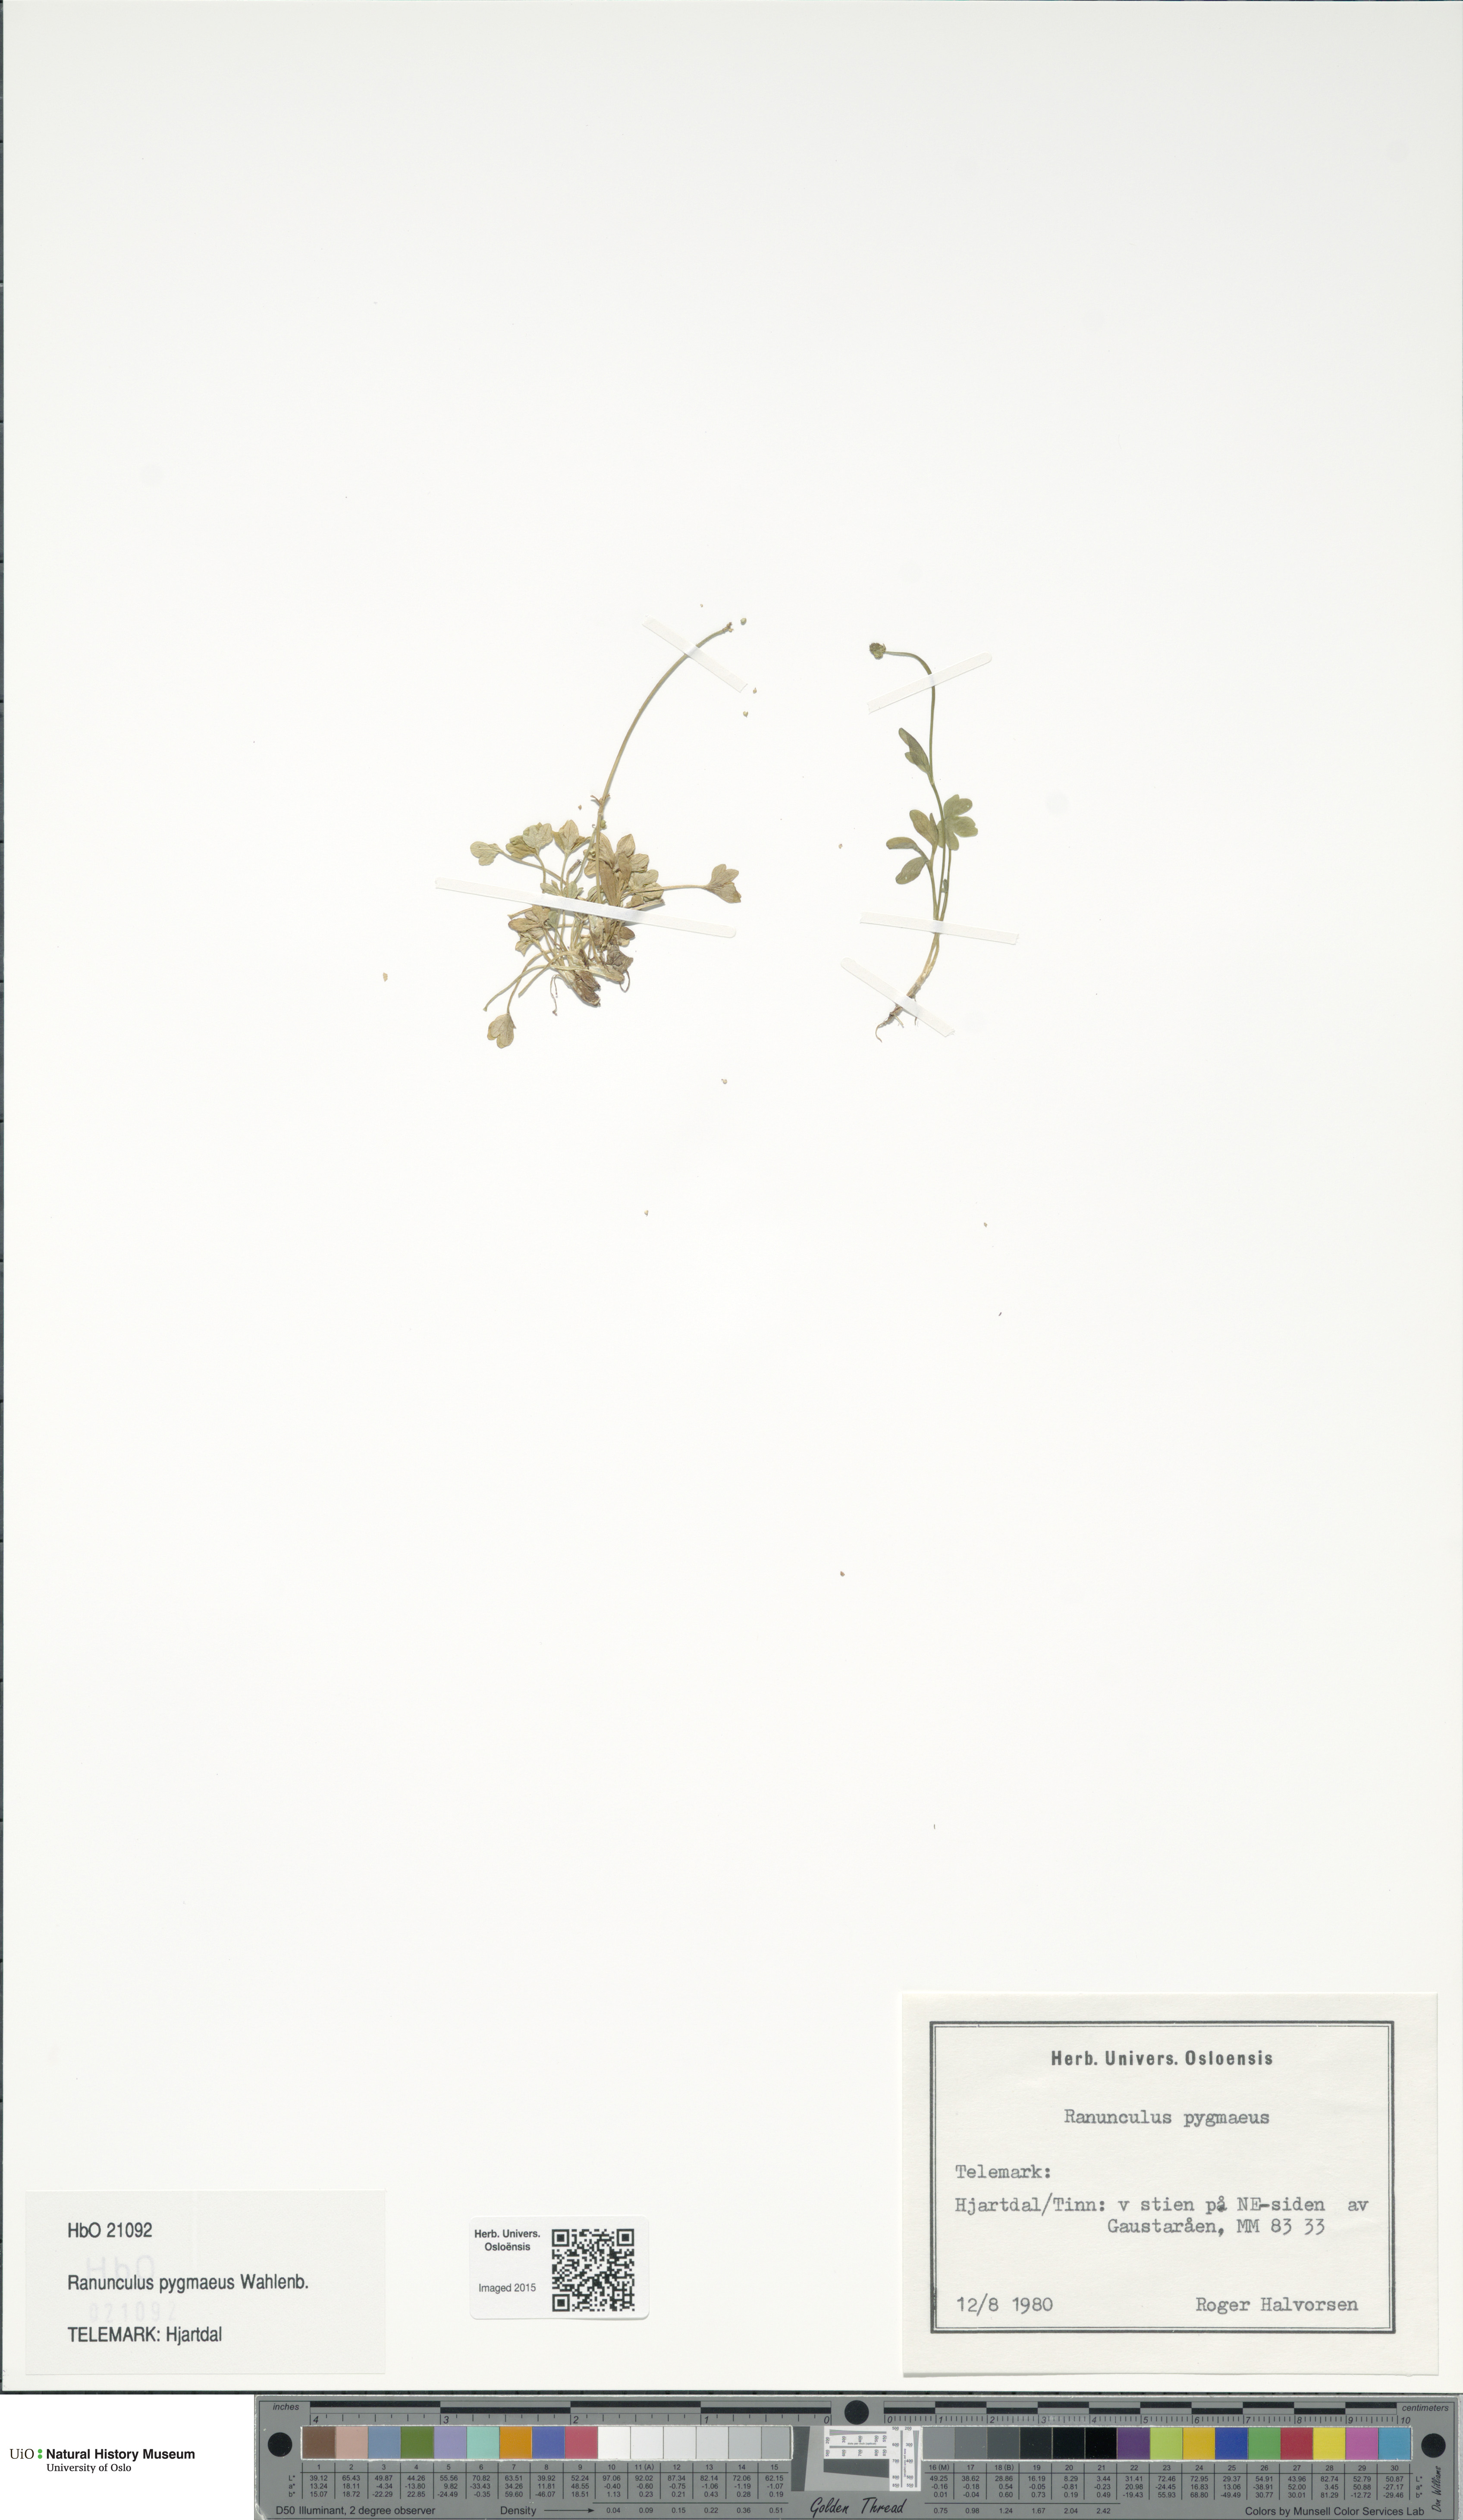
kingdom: Plantae
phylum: Tracheophyta
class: Magnoliopsida
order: Ranunculales
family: Ranunculaceae
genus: Ranunculus
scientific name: Ranunculus pygmaeus
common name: Dwarf buttercup
